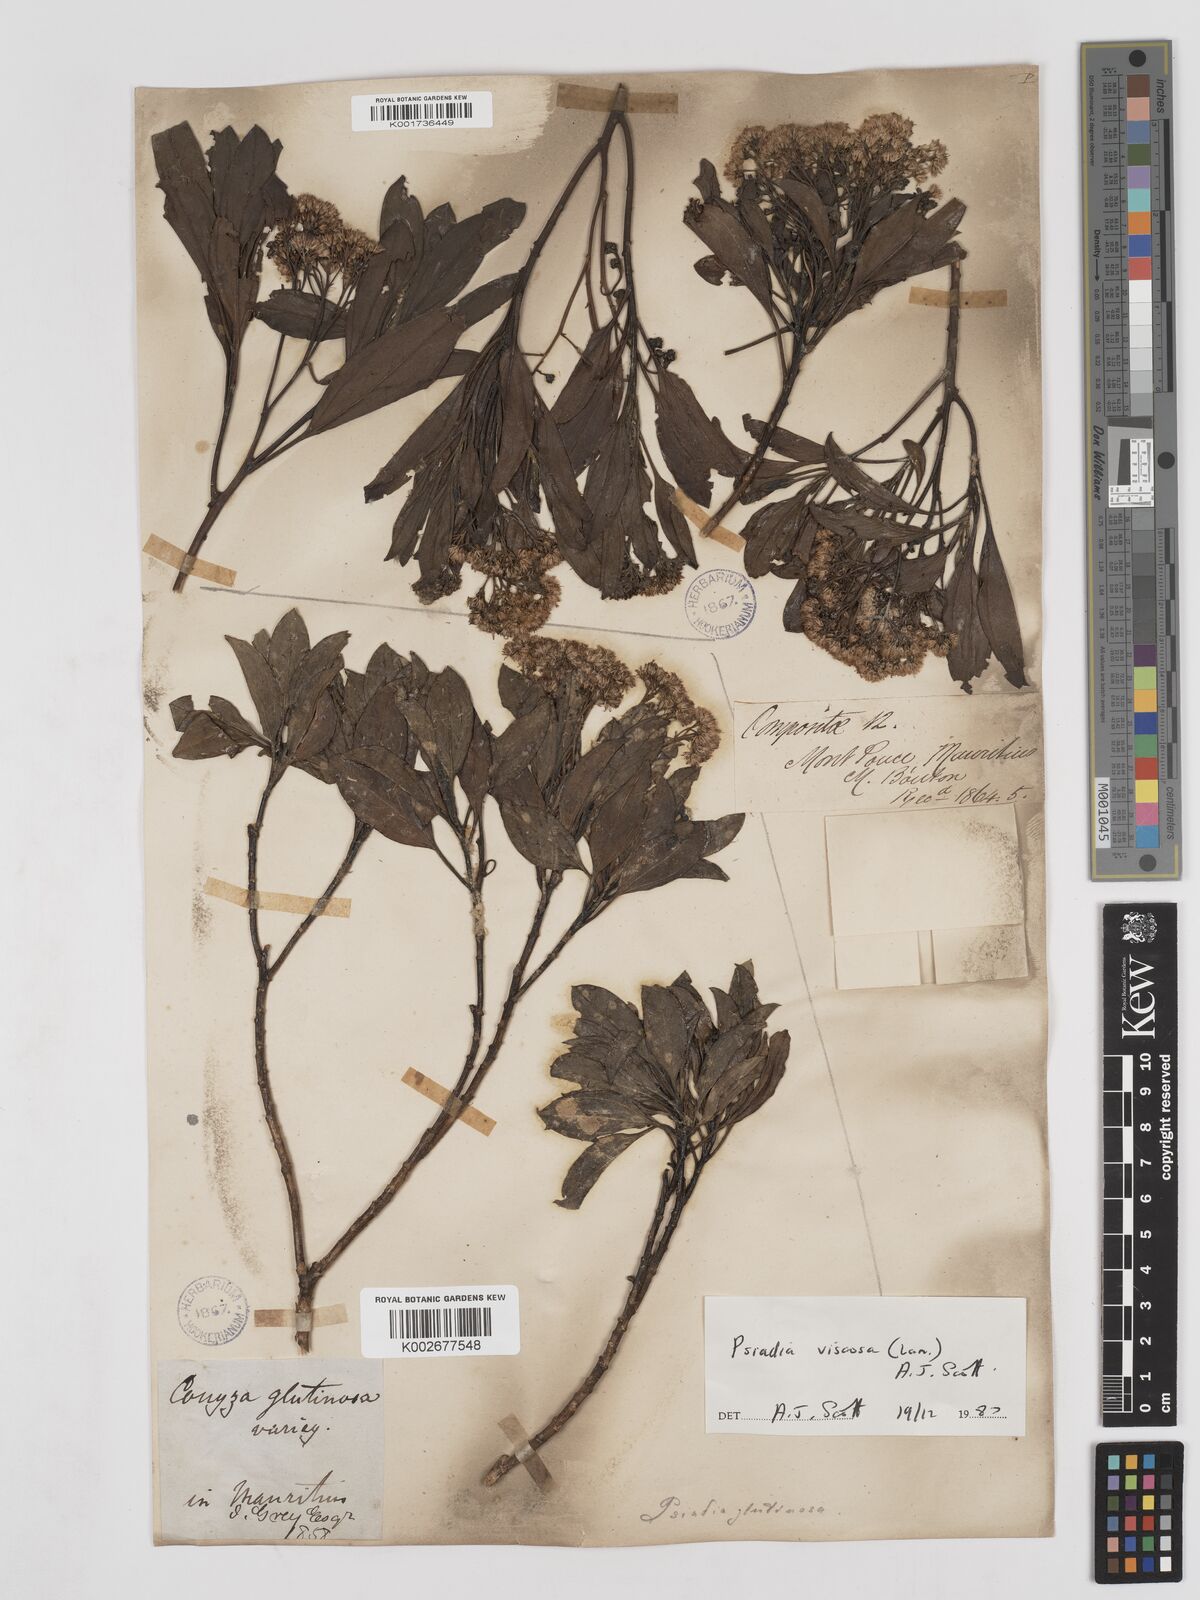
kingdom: Plantae
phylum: Tracheophyta
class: Magnoliopsida
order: Asterales
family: Asteraceae
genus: Psiadia
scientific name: Psiadia viscosa
